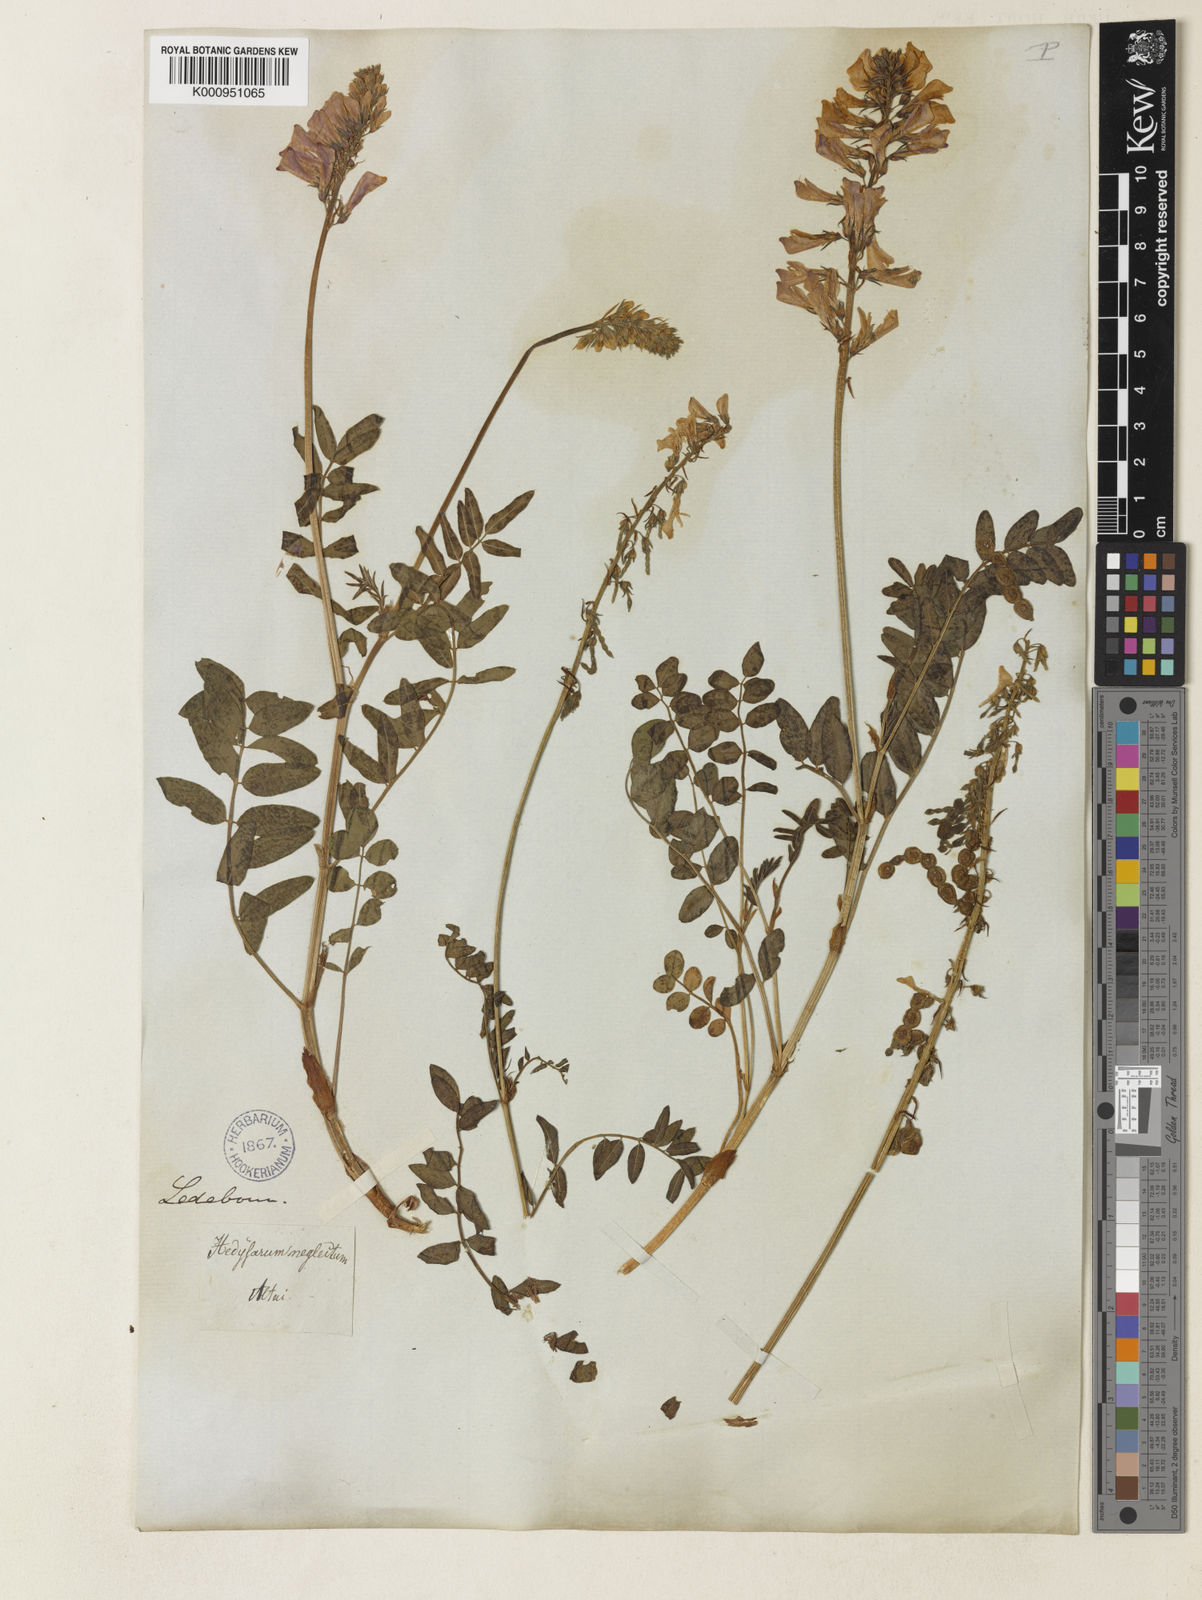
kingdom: Plantae
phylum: Tracheophyta
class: Magnoliopsida
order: Fabales
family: Fabaceae
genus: Hedysarum
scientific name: Hedysarum hedysaroides
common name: Alpine french-honeysuckle
